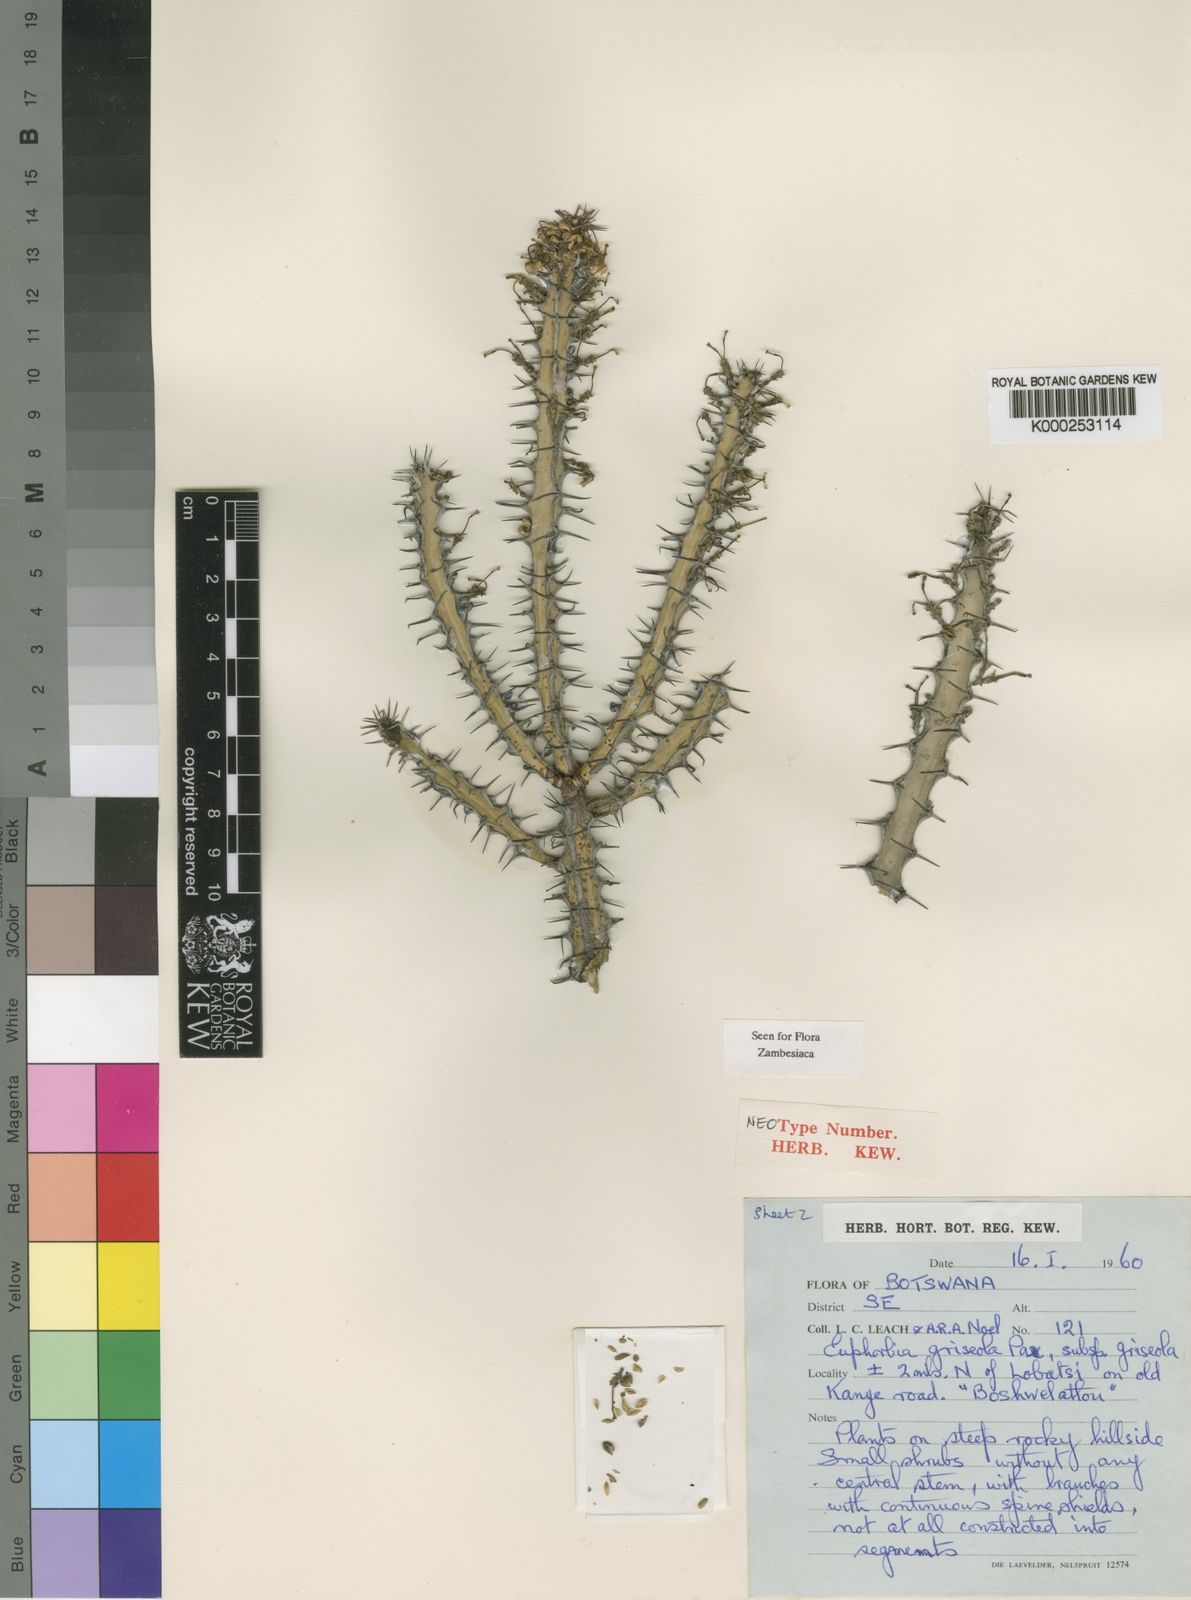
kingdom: Plantae
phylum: Tracheophyta
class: Magnoliopsida
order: Malpighiales
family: Euphorbiaceae
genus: Euphorbia
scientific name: Euphorbia griseola
